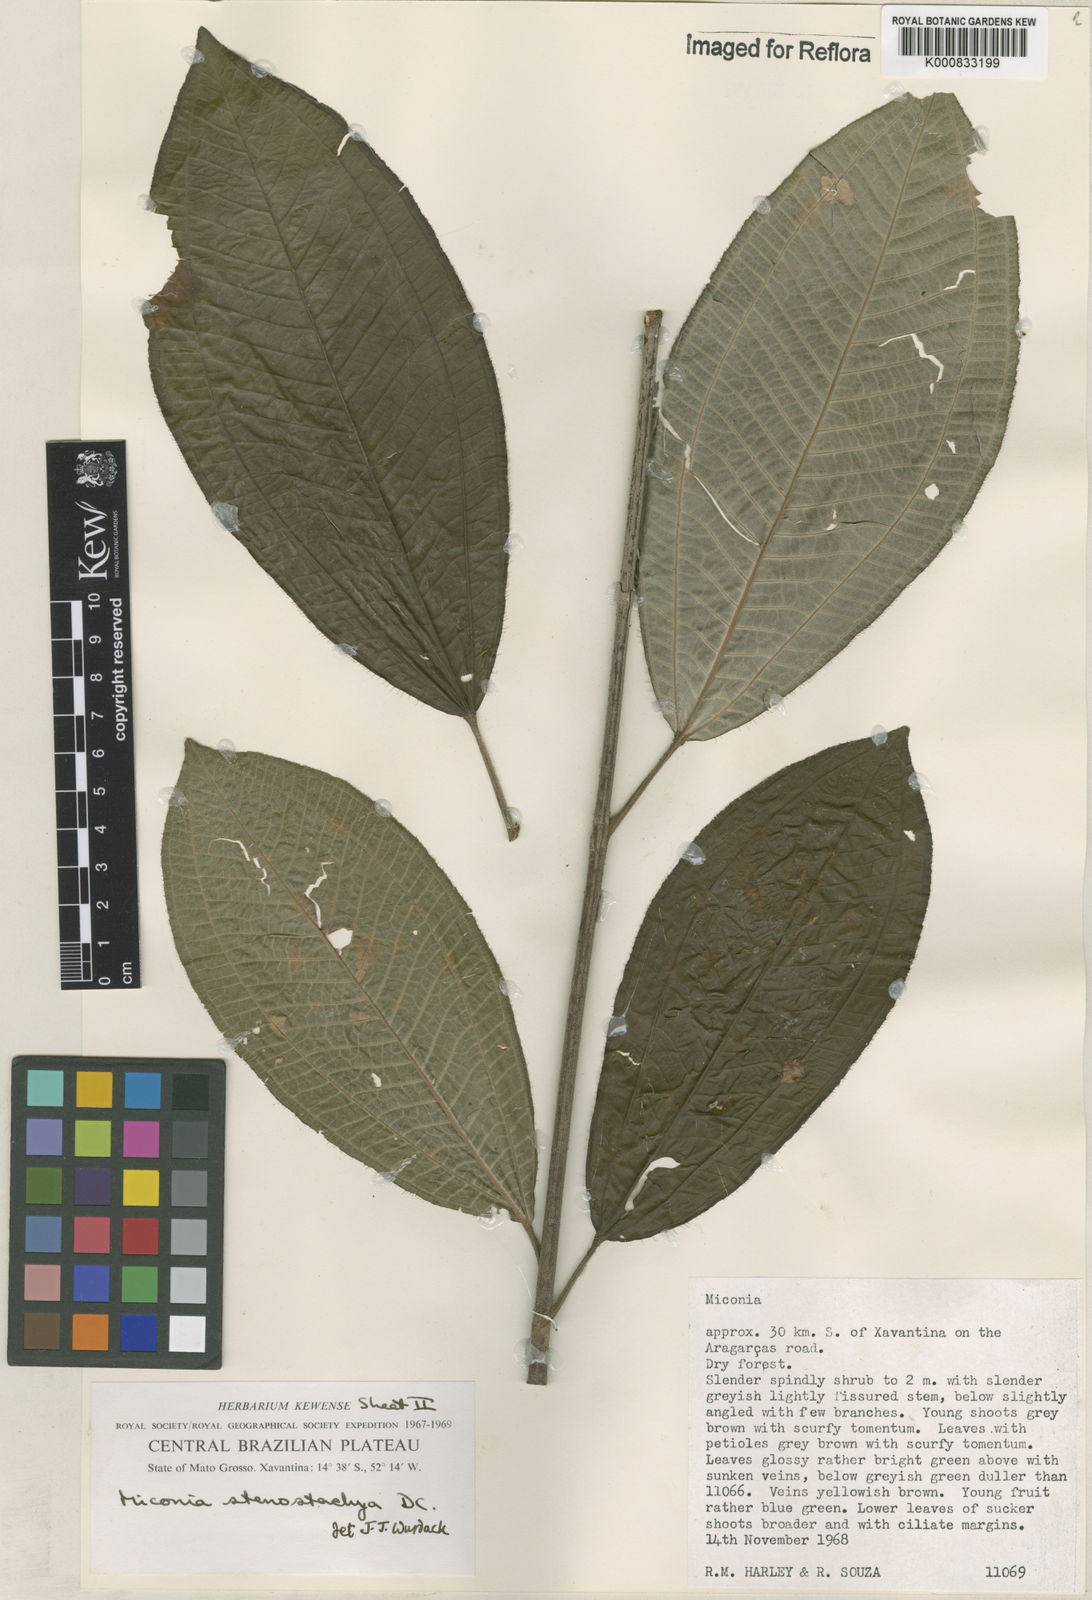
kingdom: Plantae
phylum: Tracheophyta
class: Magnoliopsida
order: Myrtales
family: Melastomataceae
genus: Miconia
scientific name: Miconia stenostachya
